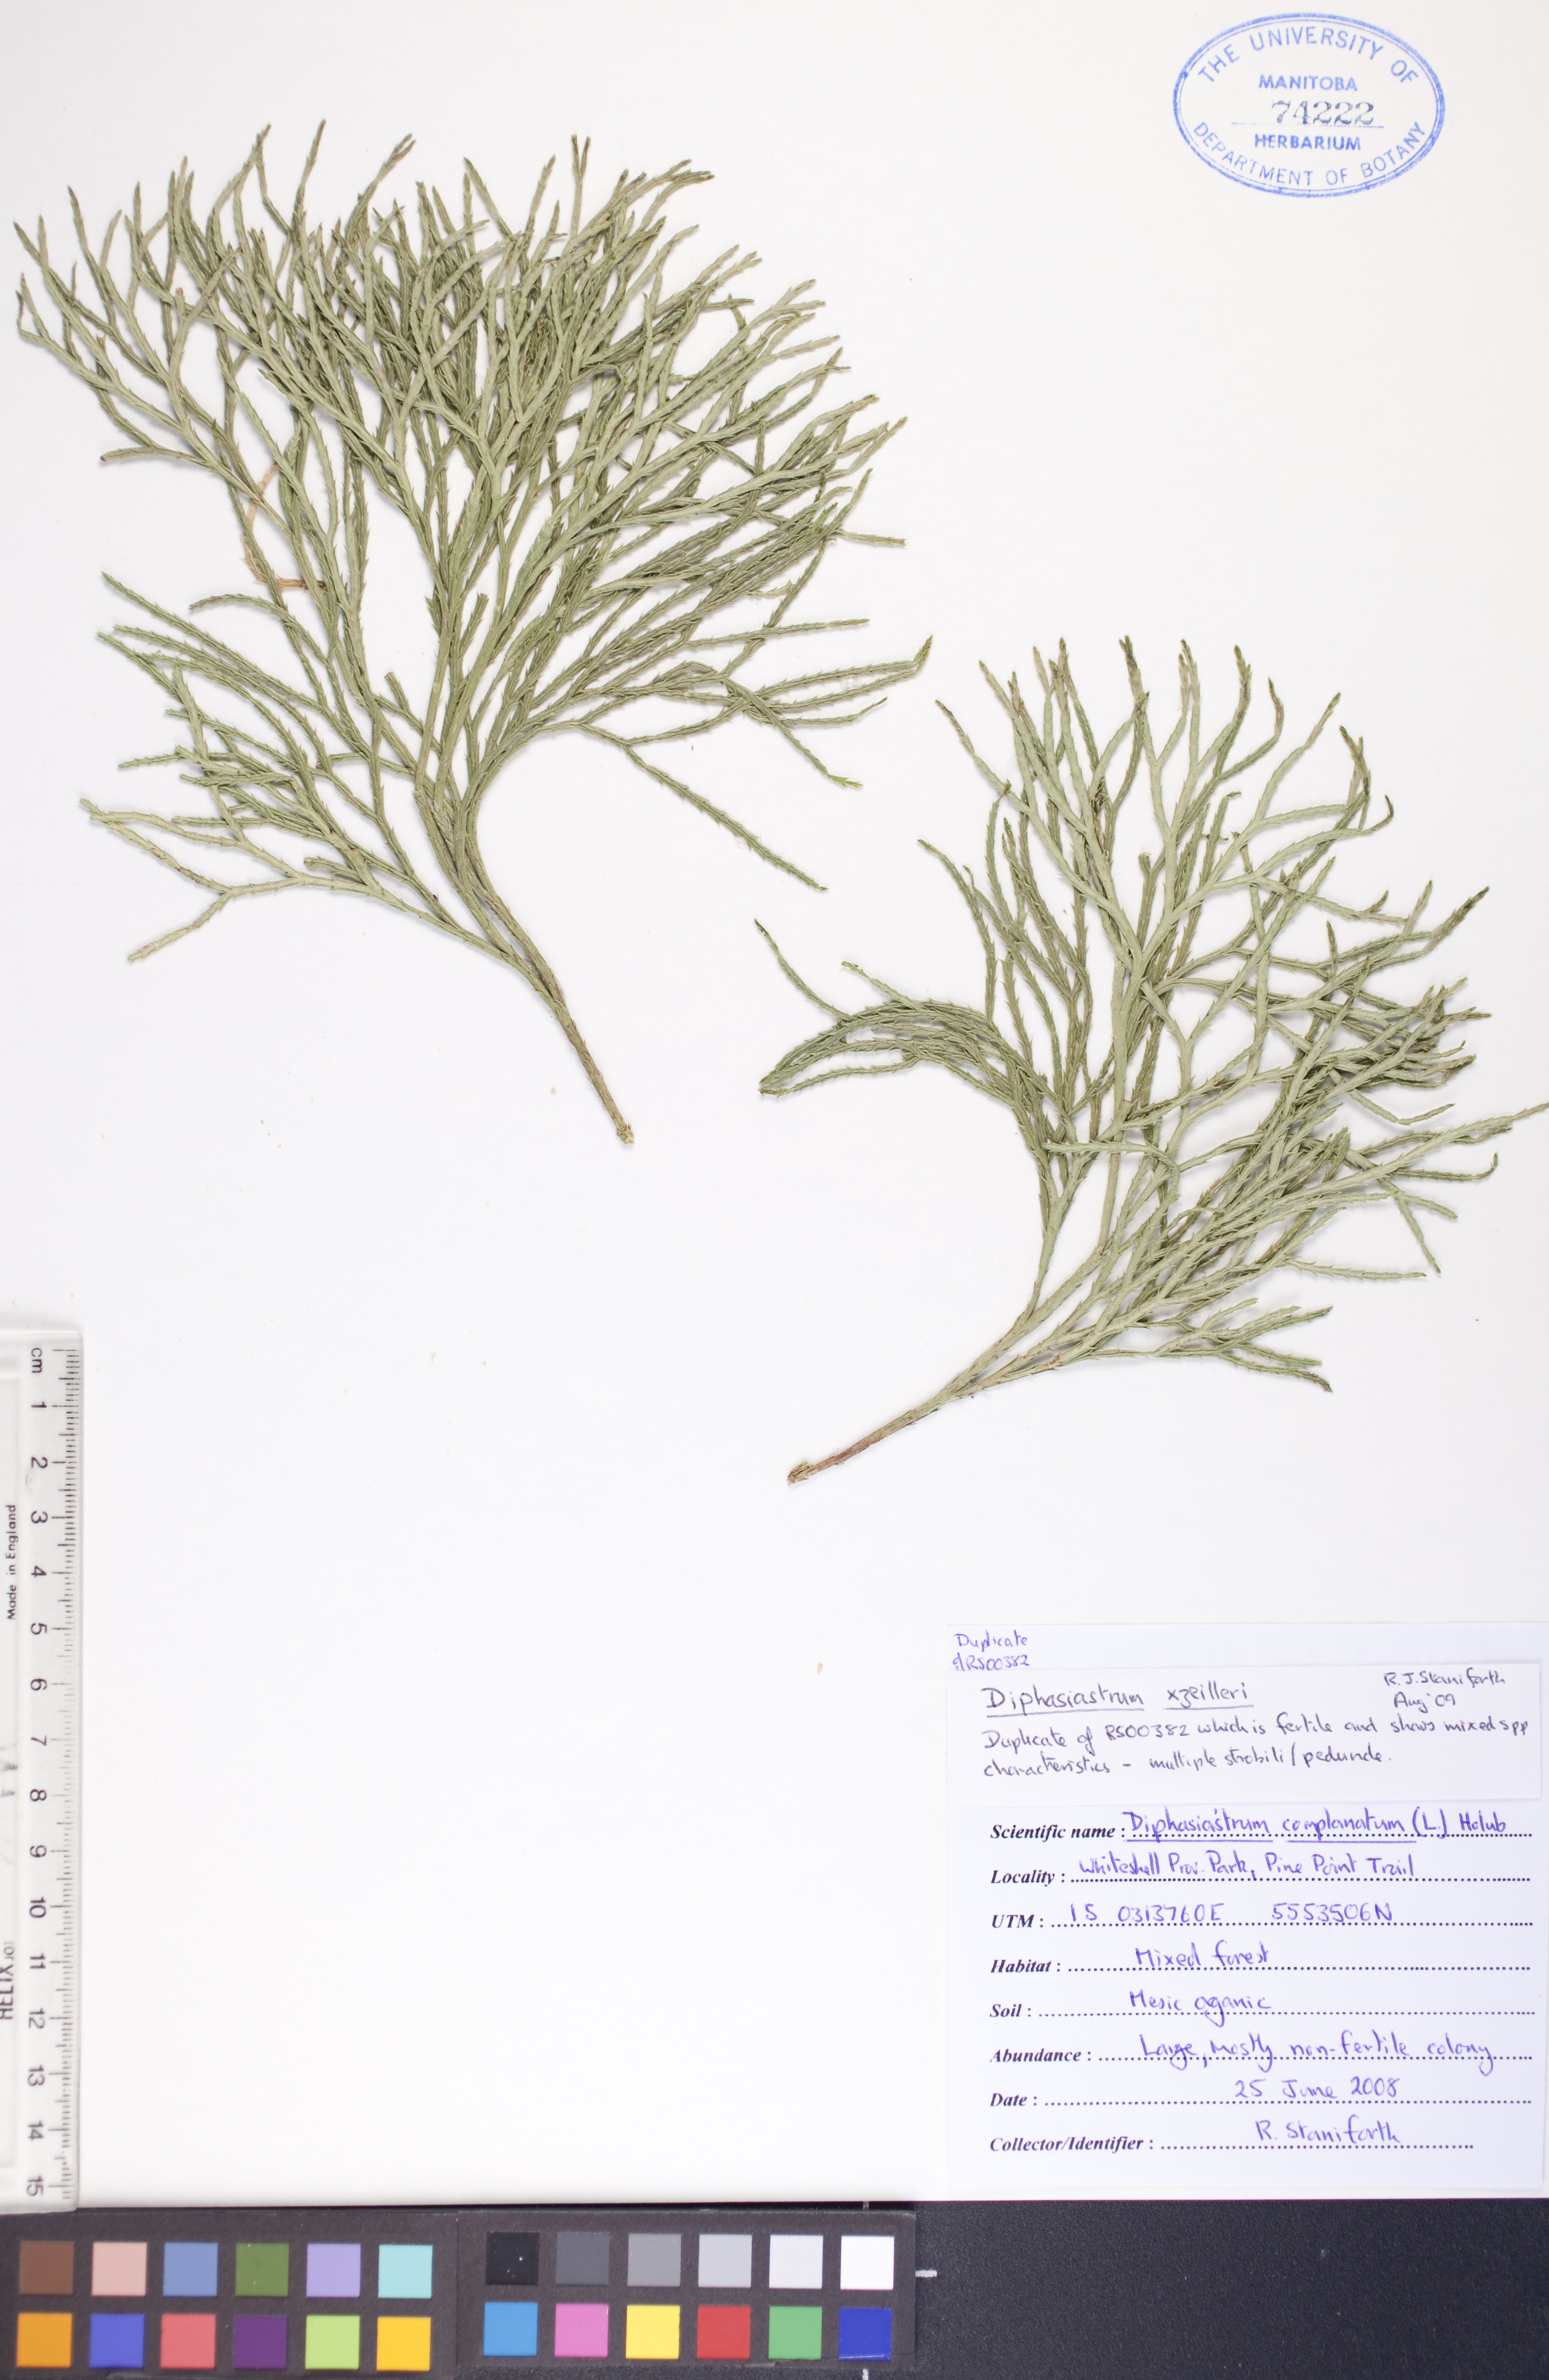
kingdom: Plantae
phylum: Tracheophyta
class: Lycopodiopsida
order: Lycopodiales
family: Lycopodiaceae
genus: Diphasiastrum
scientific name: Diphasiastrum zeilleri
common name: Zeiller's clubmoss
